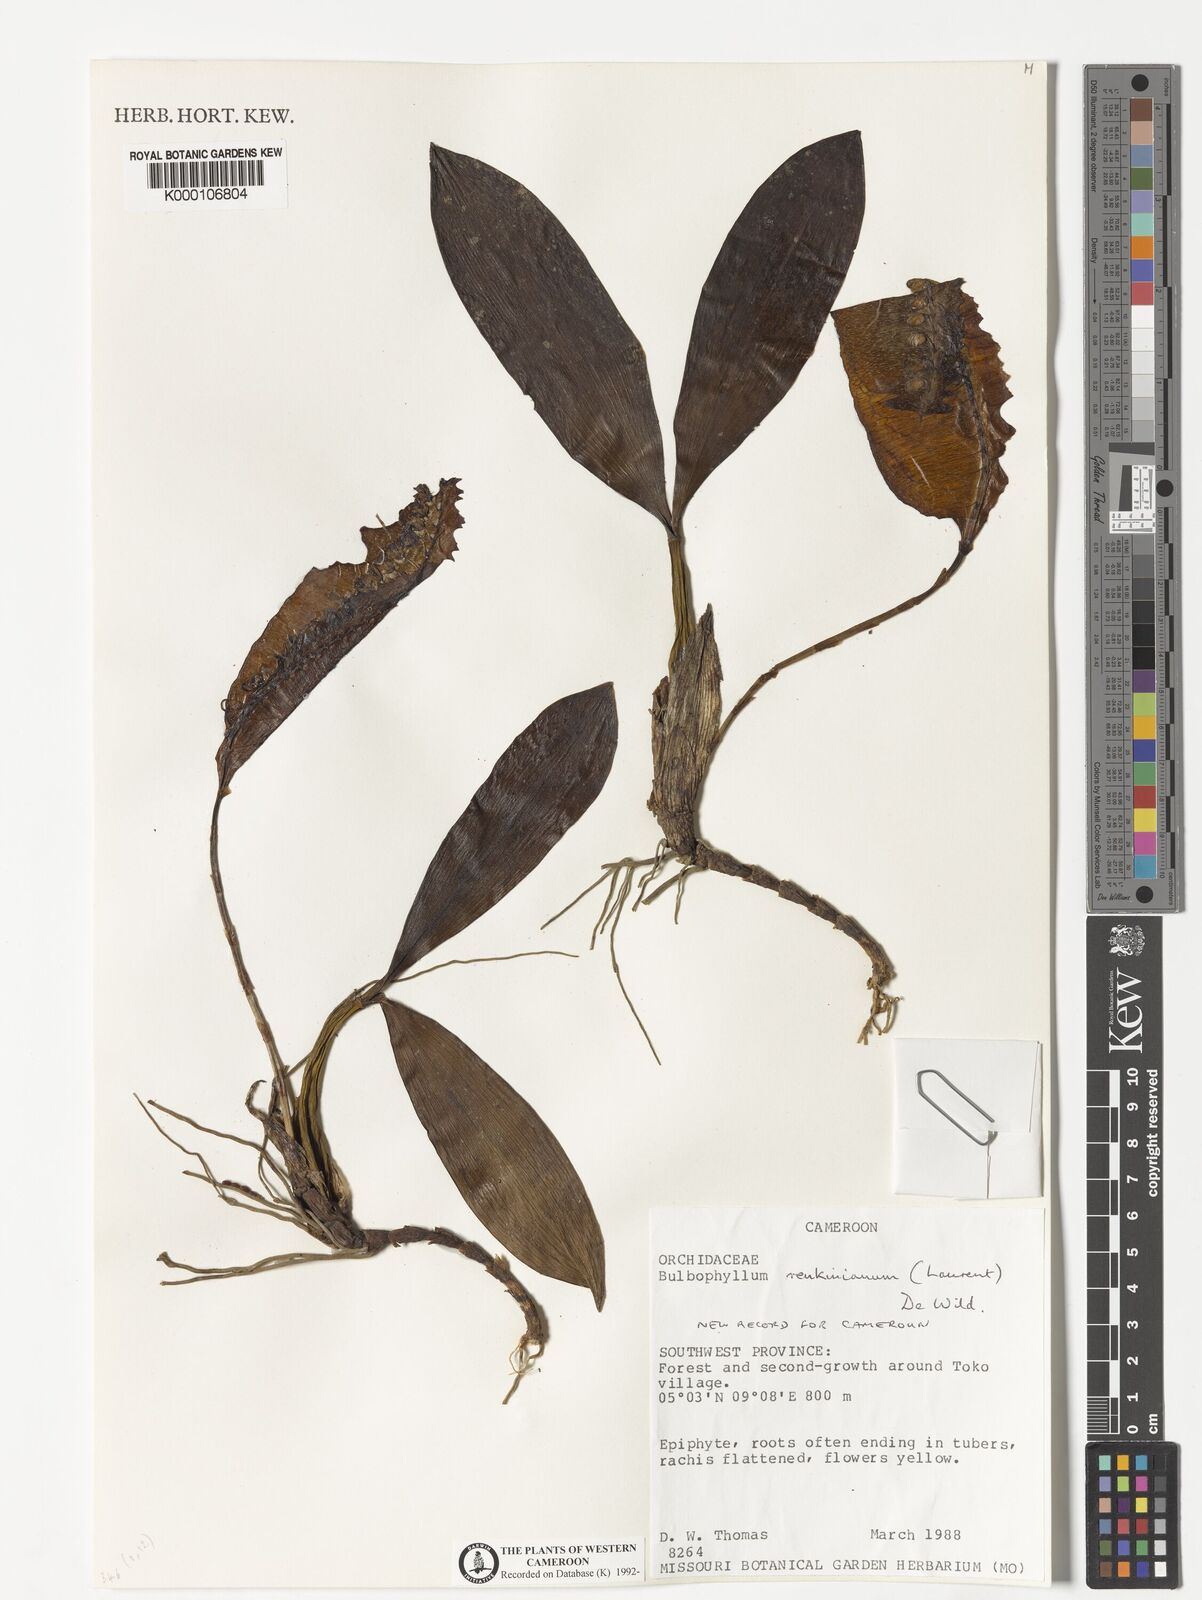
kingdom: Plantae
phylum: Tracheophyta
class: Liliopsida
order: Asparagales
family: Orchidaceae
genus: Bulbophyllum
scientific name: Bulbophyllum renkinianum
